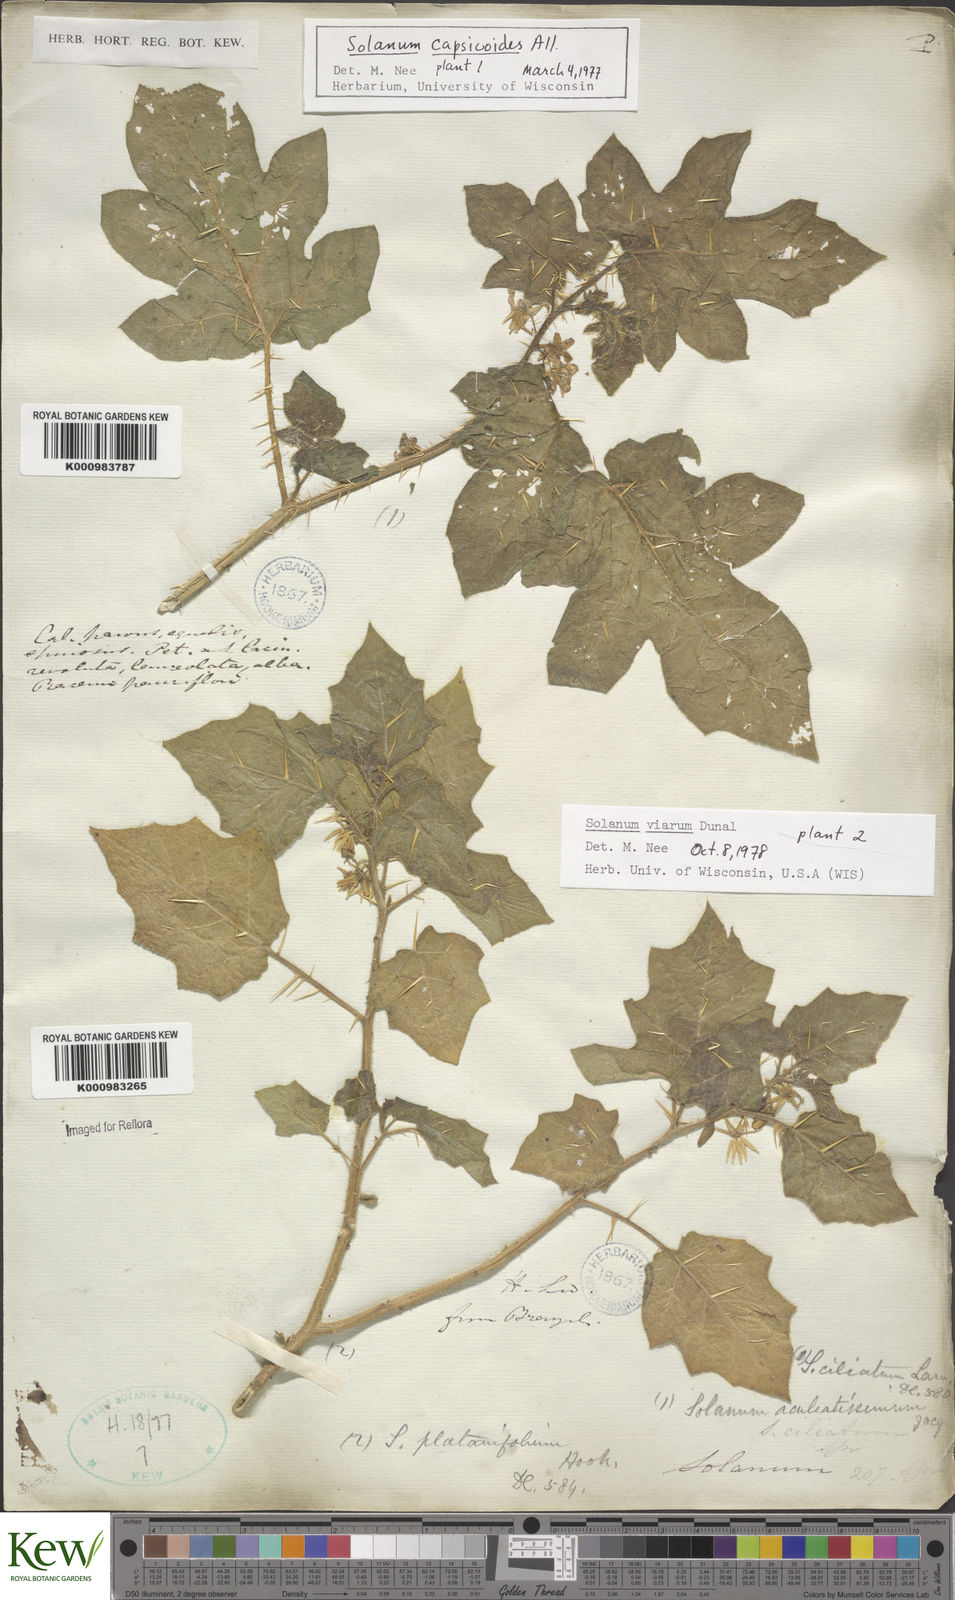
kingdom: Plantae
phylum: Tracheophyta
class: Magnoliopsida
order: Solanales
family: Solanaceae
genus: Solanum
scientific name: Solanum viarum
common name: Tropical soda apple
